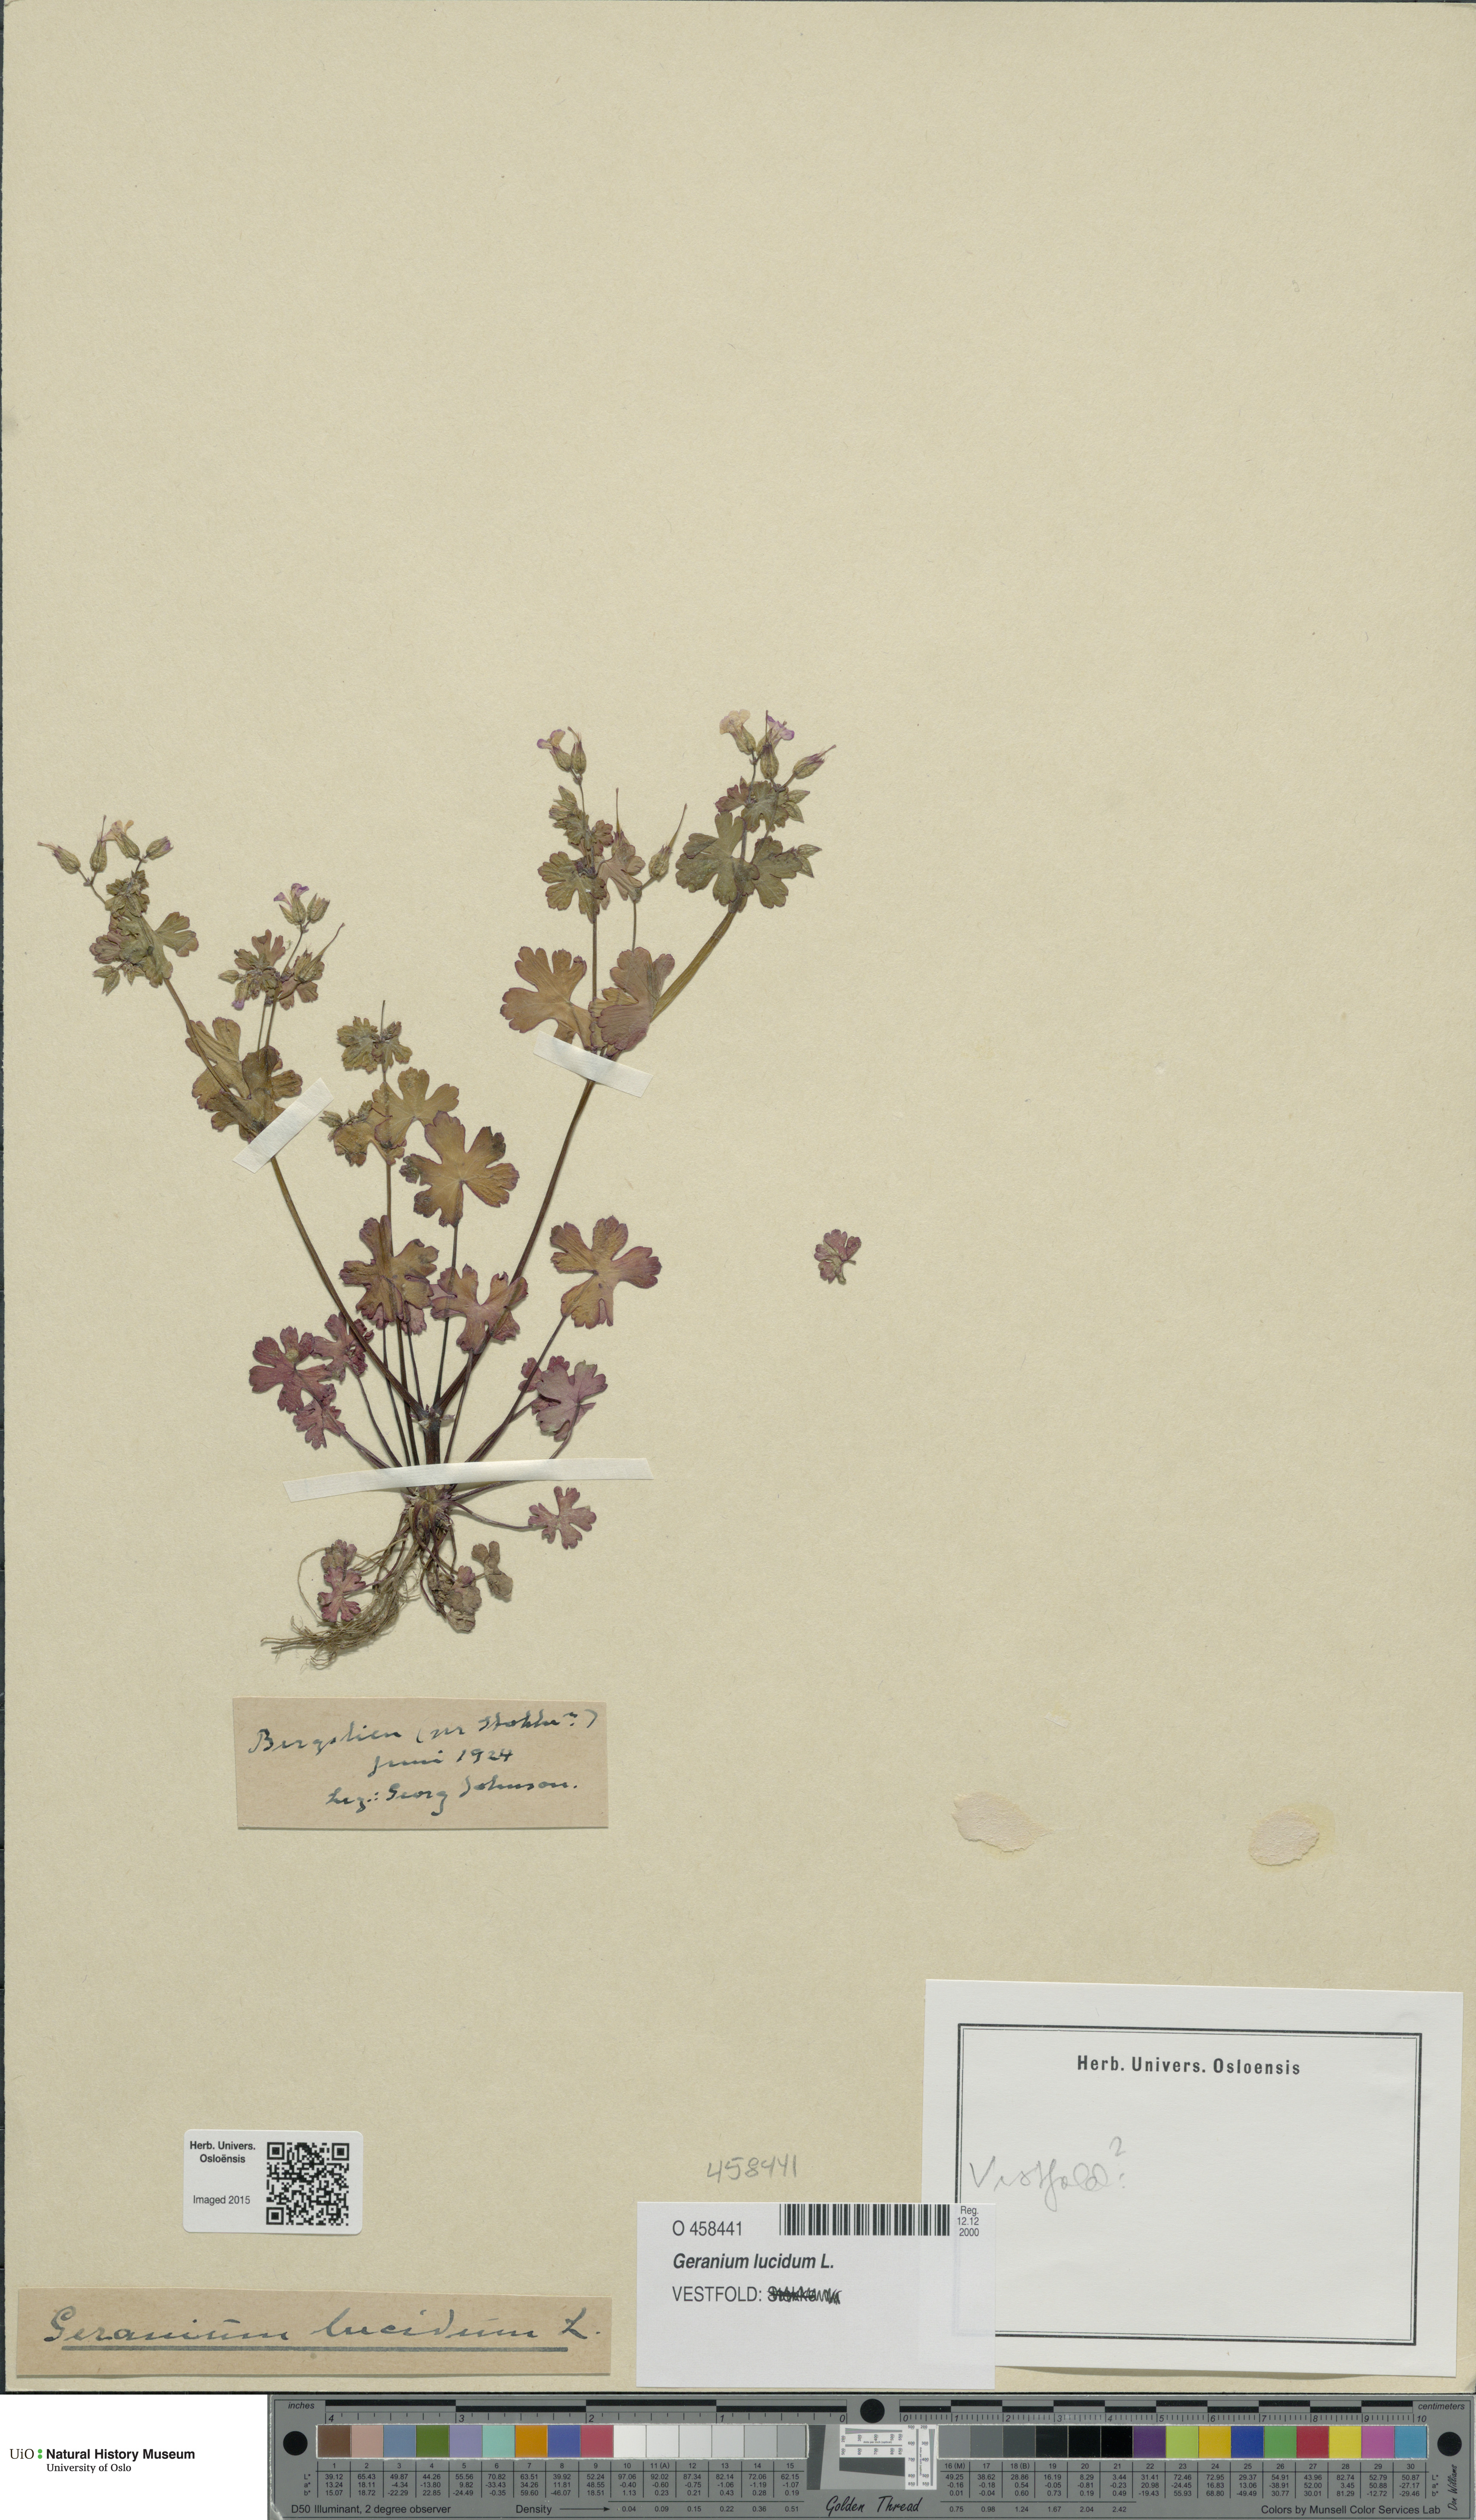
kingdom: Plantae
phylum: Tracheophyta
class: Magnoliopsida
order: Geraniales
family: Geraniaceae
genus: Geranium
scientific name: Geranium lucidum
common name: Shining crane's-bill
